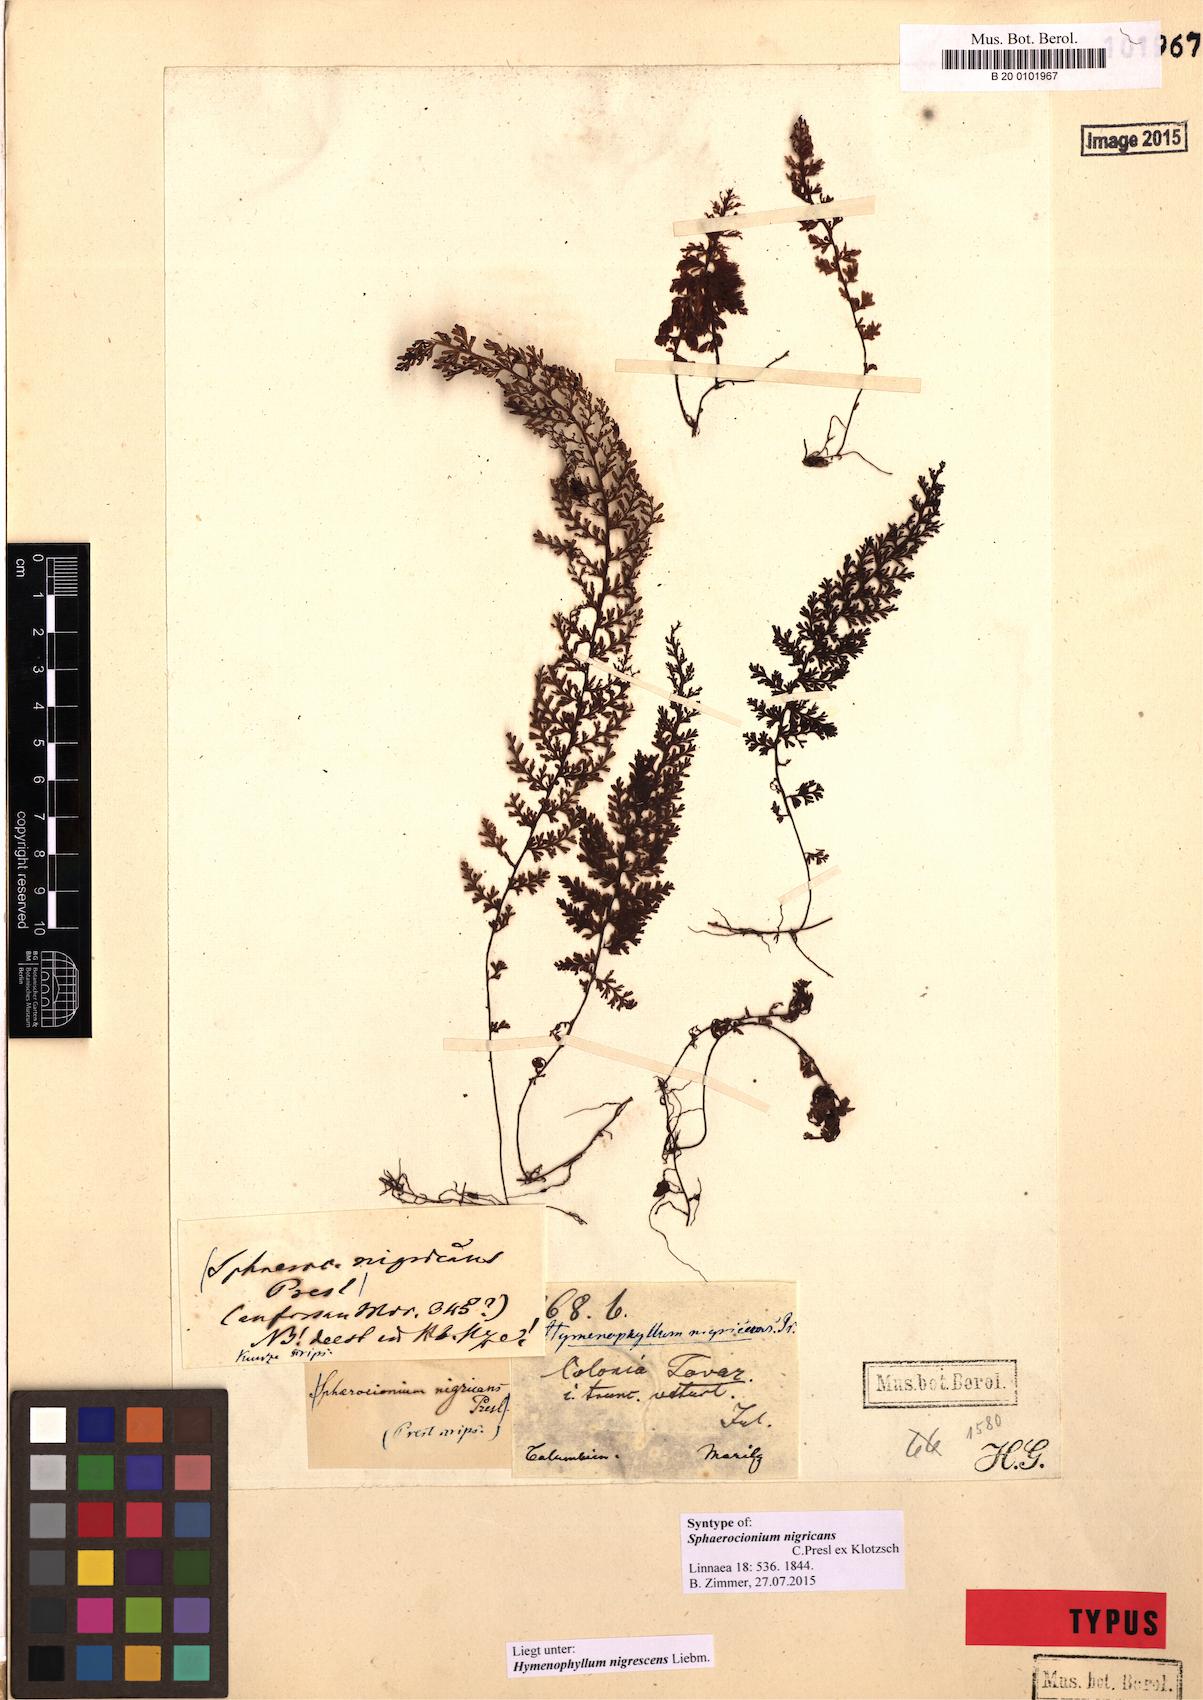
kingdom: Plantae
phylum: Tracheophyta
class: Polypodiopsida
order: Hymenophyllales
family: Hymenophyllaceae
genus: Hymenophyllum
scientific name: Hymenophyllum myriocarpum
